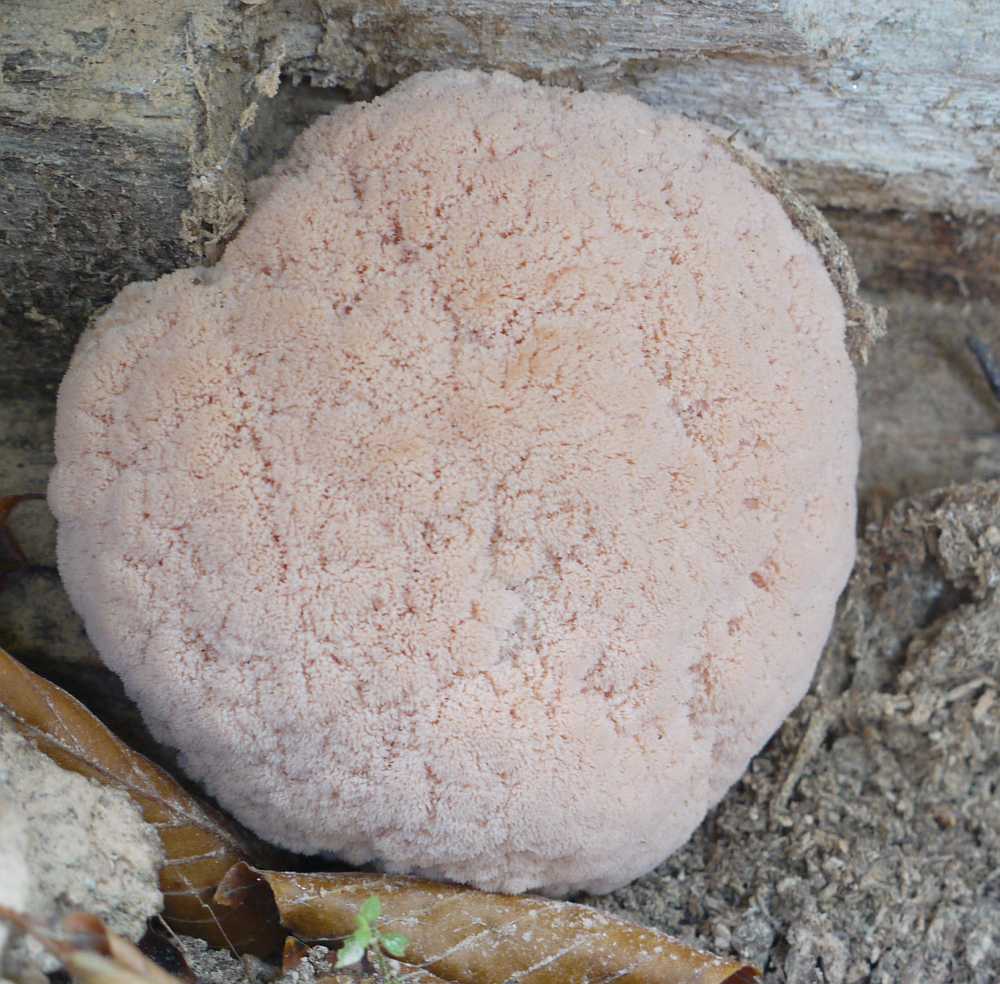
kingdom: Fungi
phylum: Basidiomycota
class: Agaricomycetes
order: Russulales
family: Hericiaceae
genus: Hericium
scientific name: Hericium erinaceus
